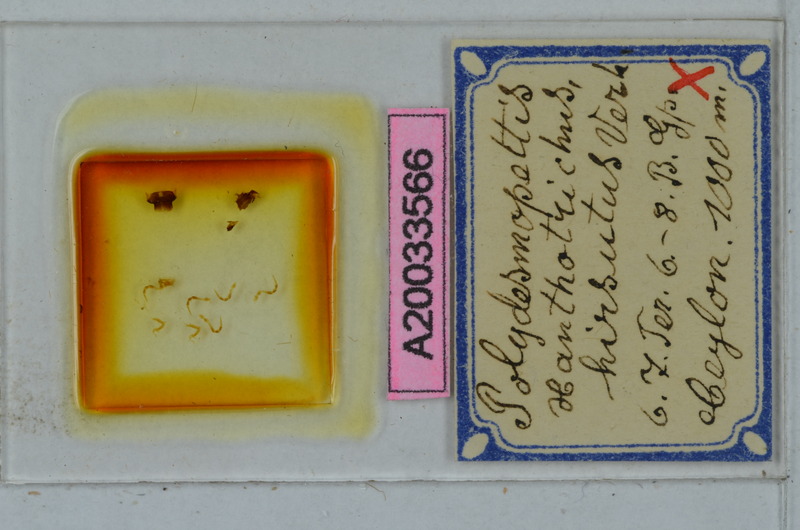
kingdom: Animalia
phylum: Arthropoda
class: Diplopoda
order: Polydesmida
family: Paradoxosomatidae
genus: Polydesmopeltis
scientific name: Polydesmopeltis xanthotrichus
